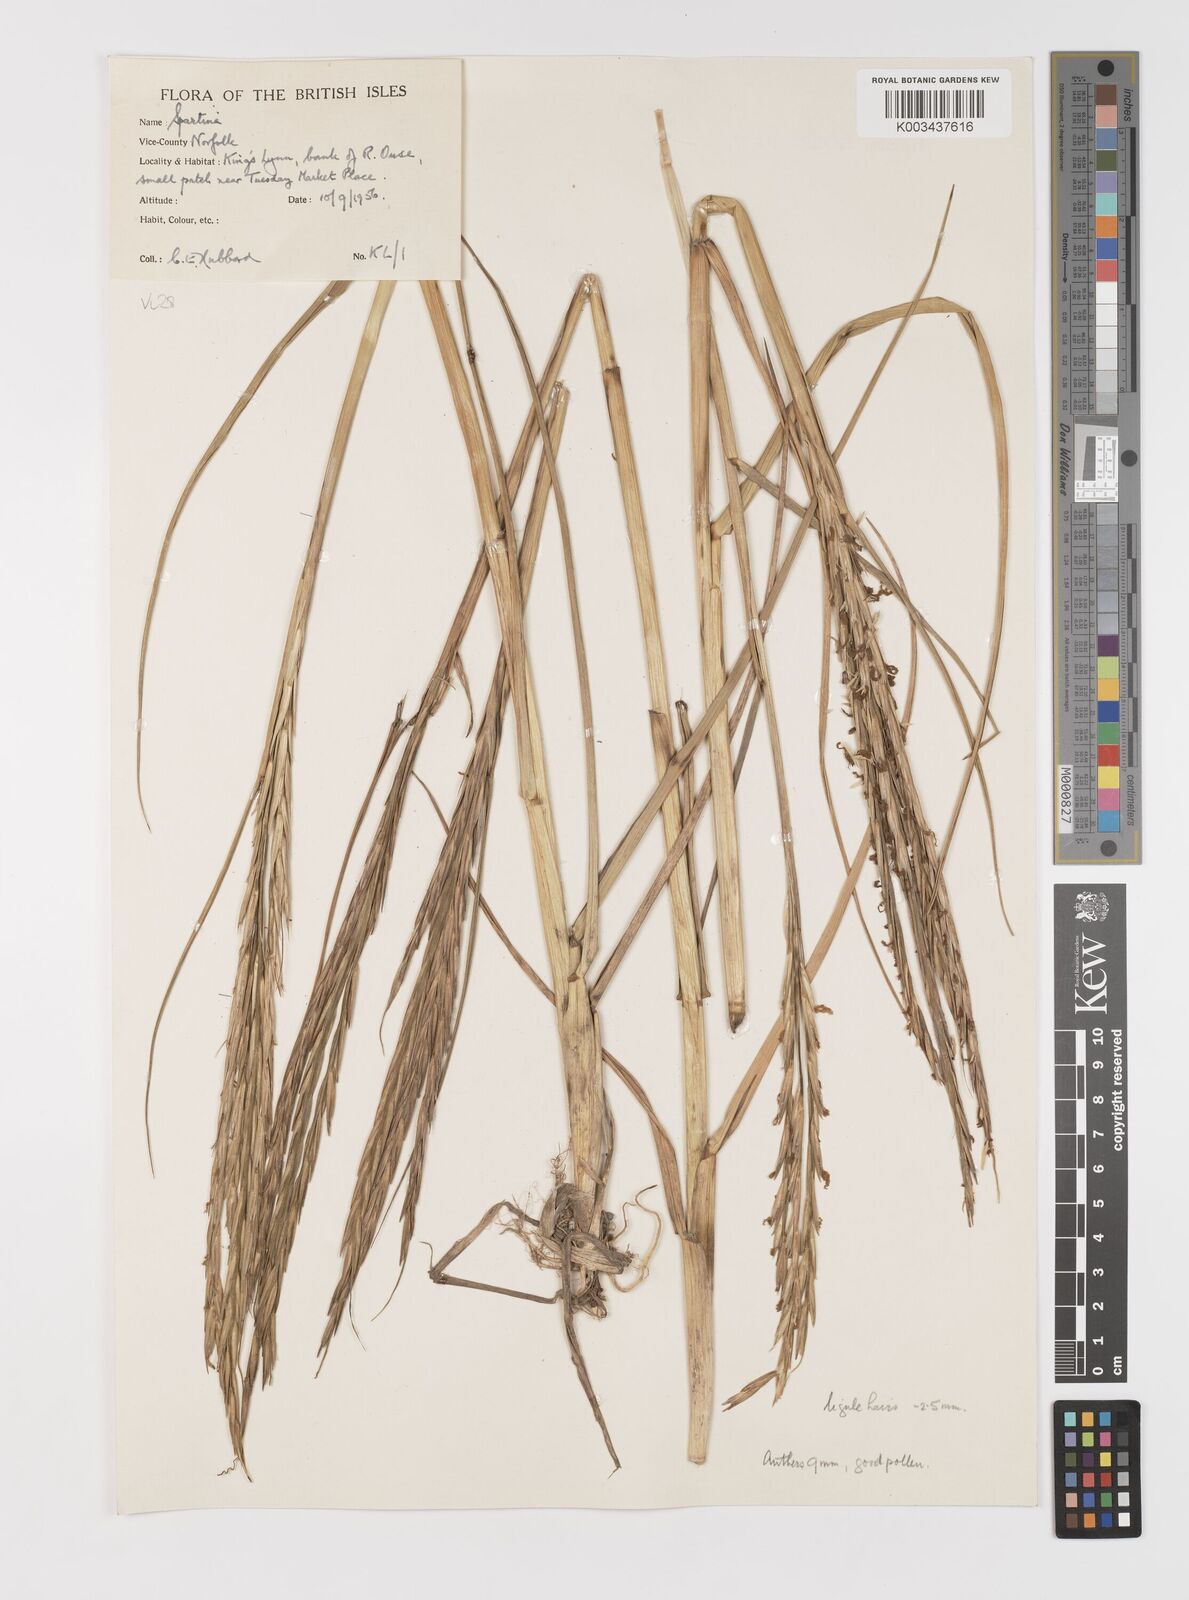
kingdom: Plantae
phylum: Tracheophyta
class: Liliopsida
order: Poales
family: Poaceae
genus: Sporobolus
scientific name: Sporobolus anglicus
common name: English cordgrass
